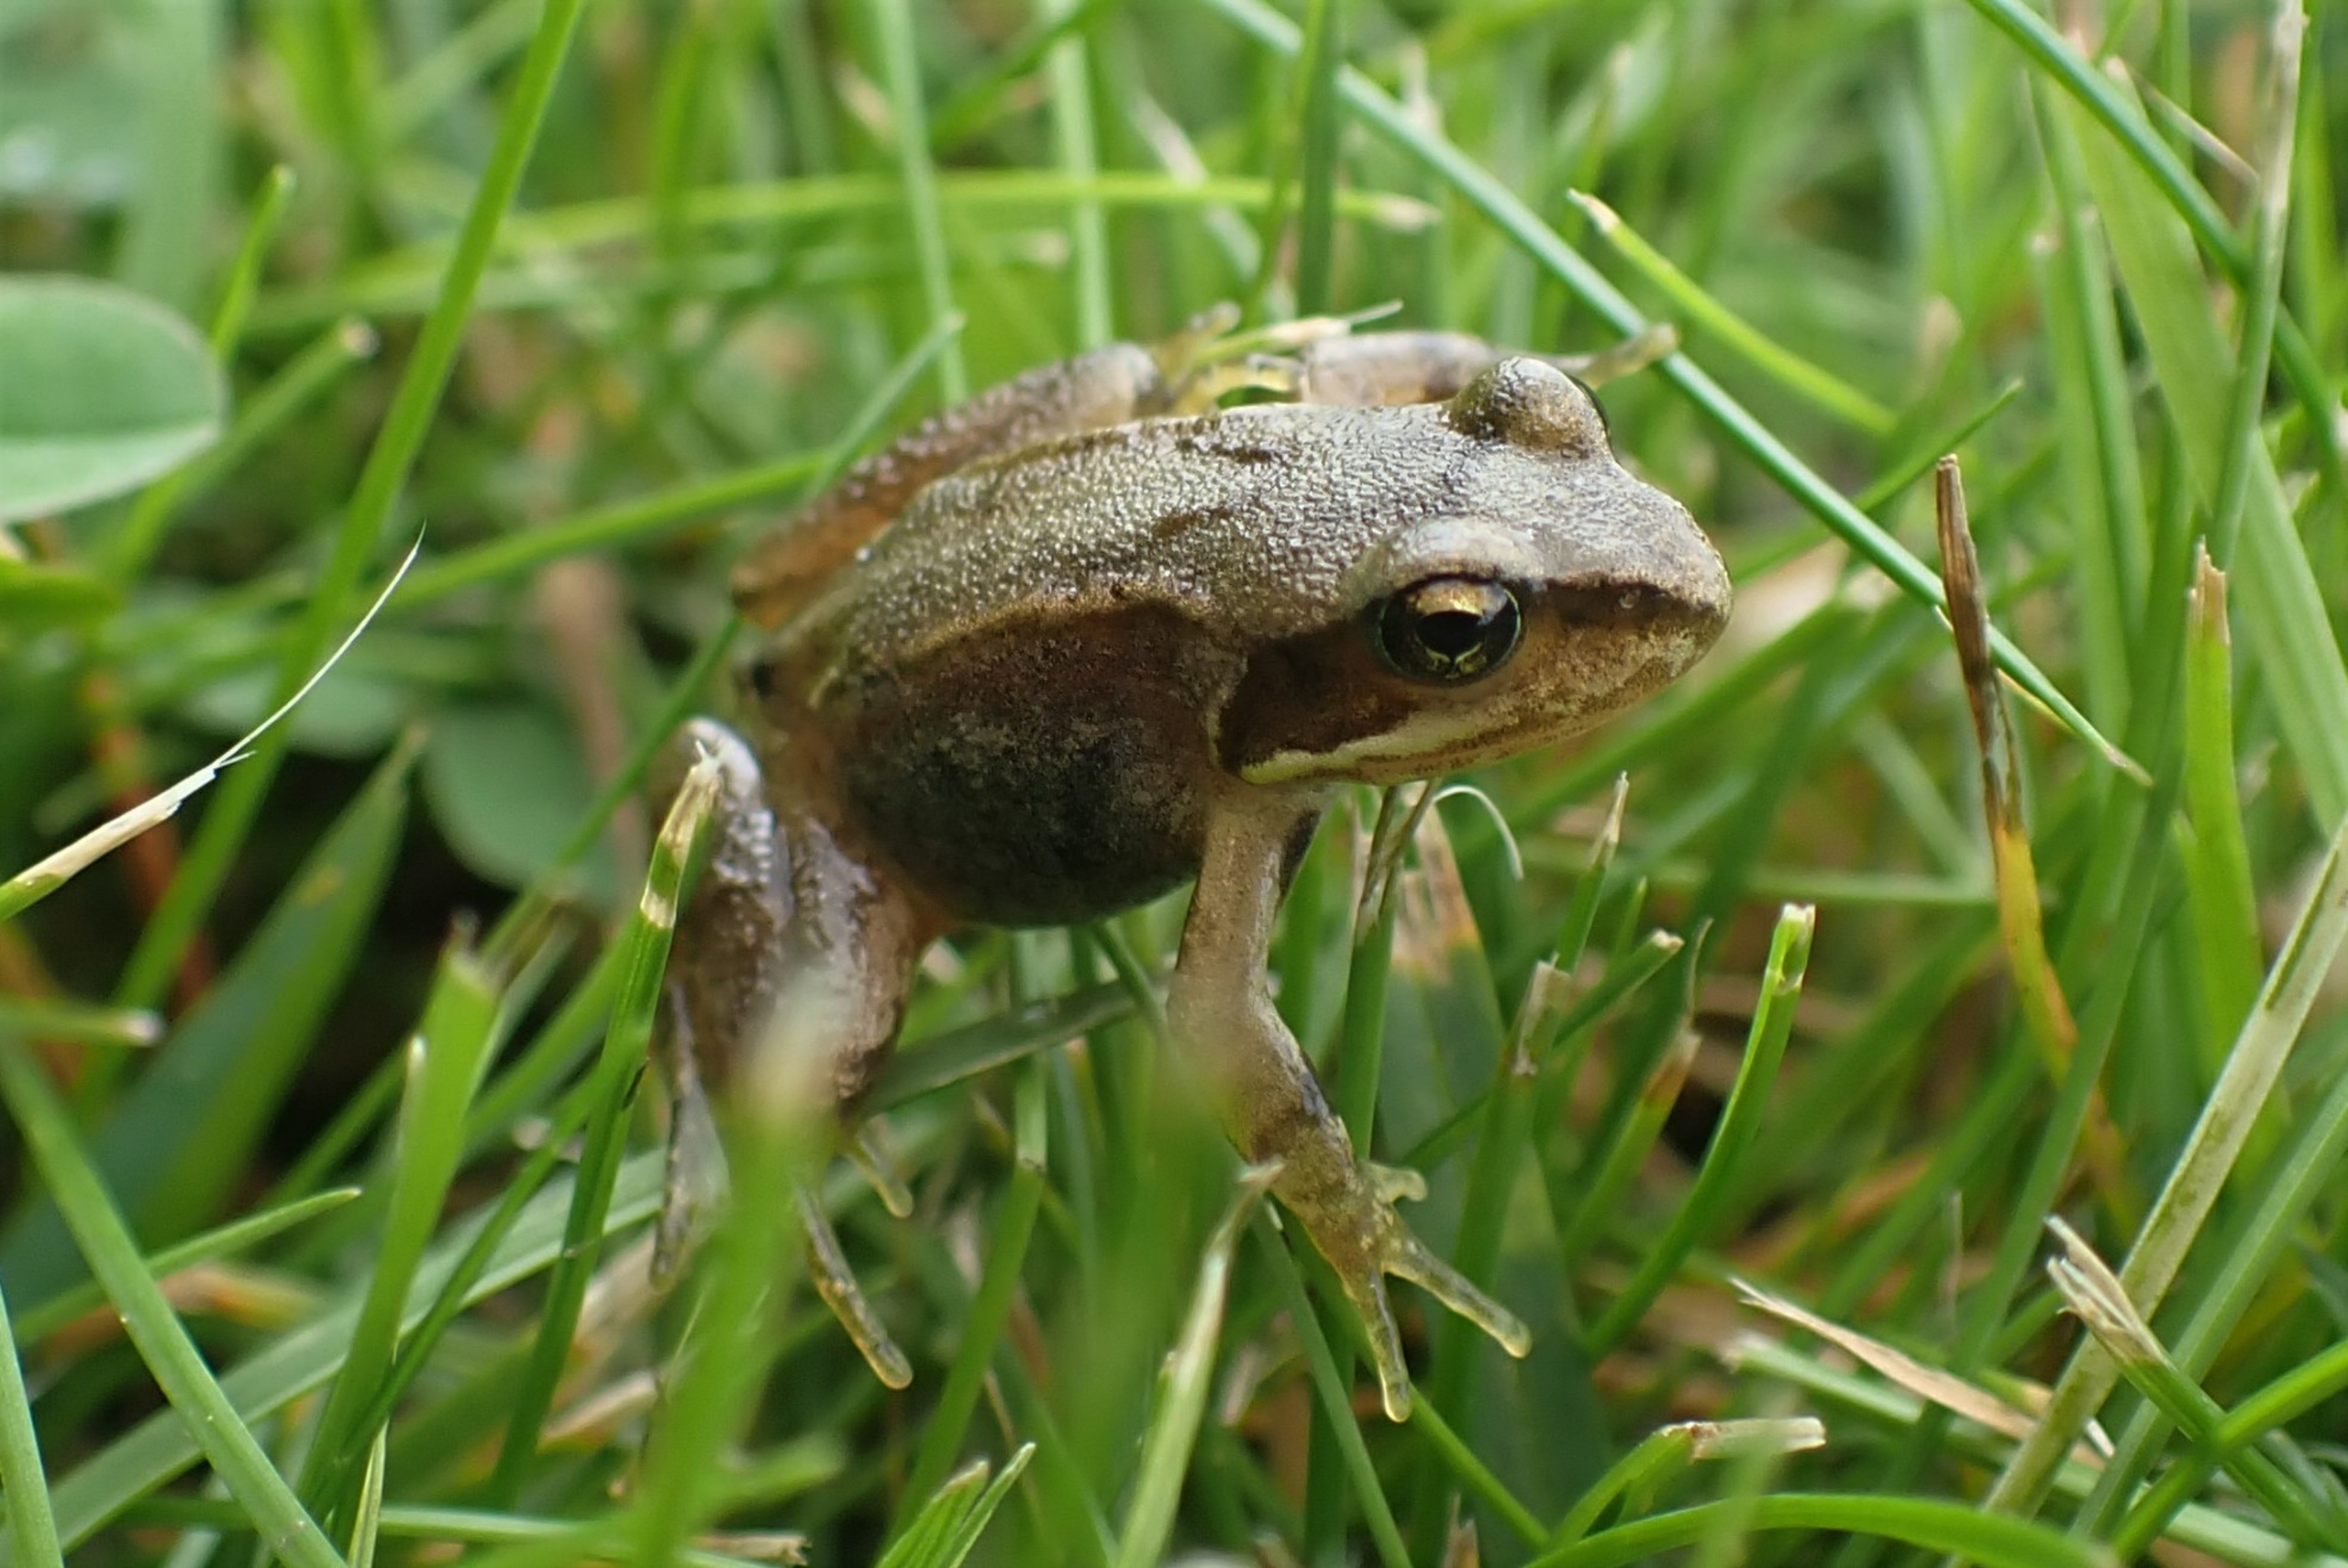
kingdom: Animalia
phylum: Chordata
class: Amphibia
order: Anura
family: Ranidae
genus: Rana
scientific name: Rana temporaria
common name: Butsnudet frø
